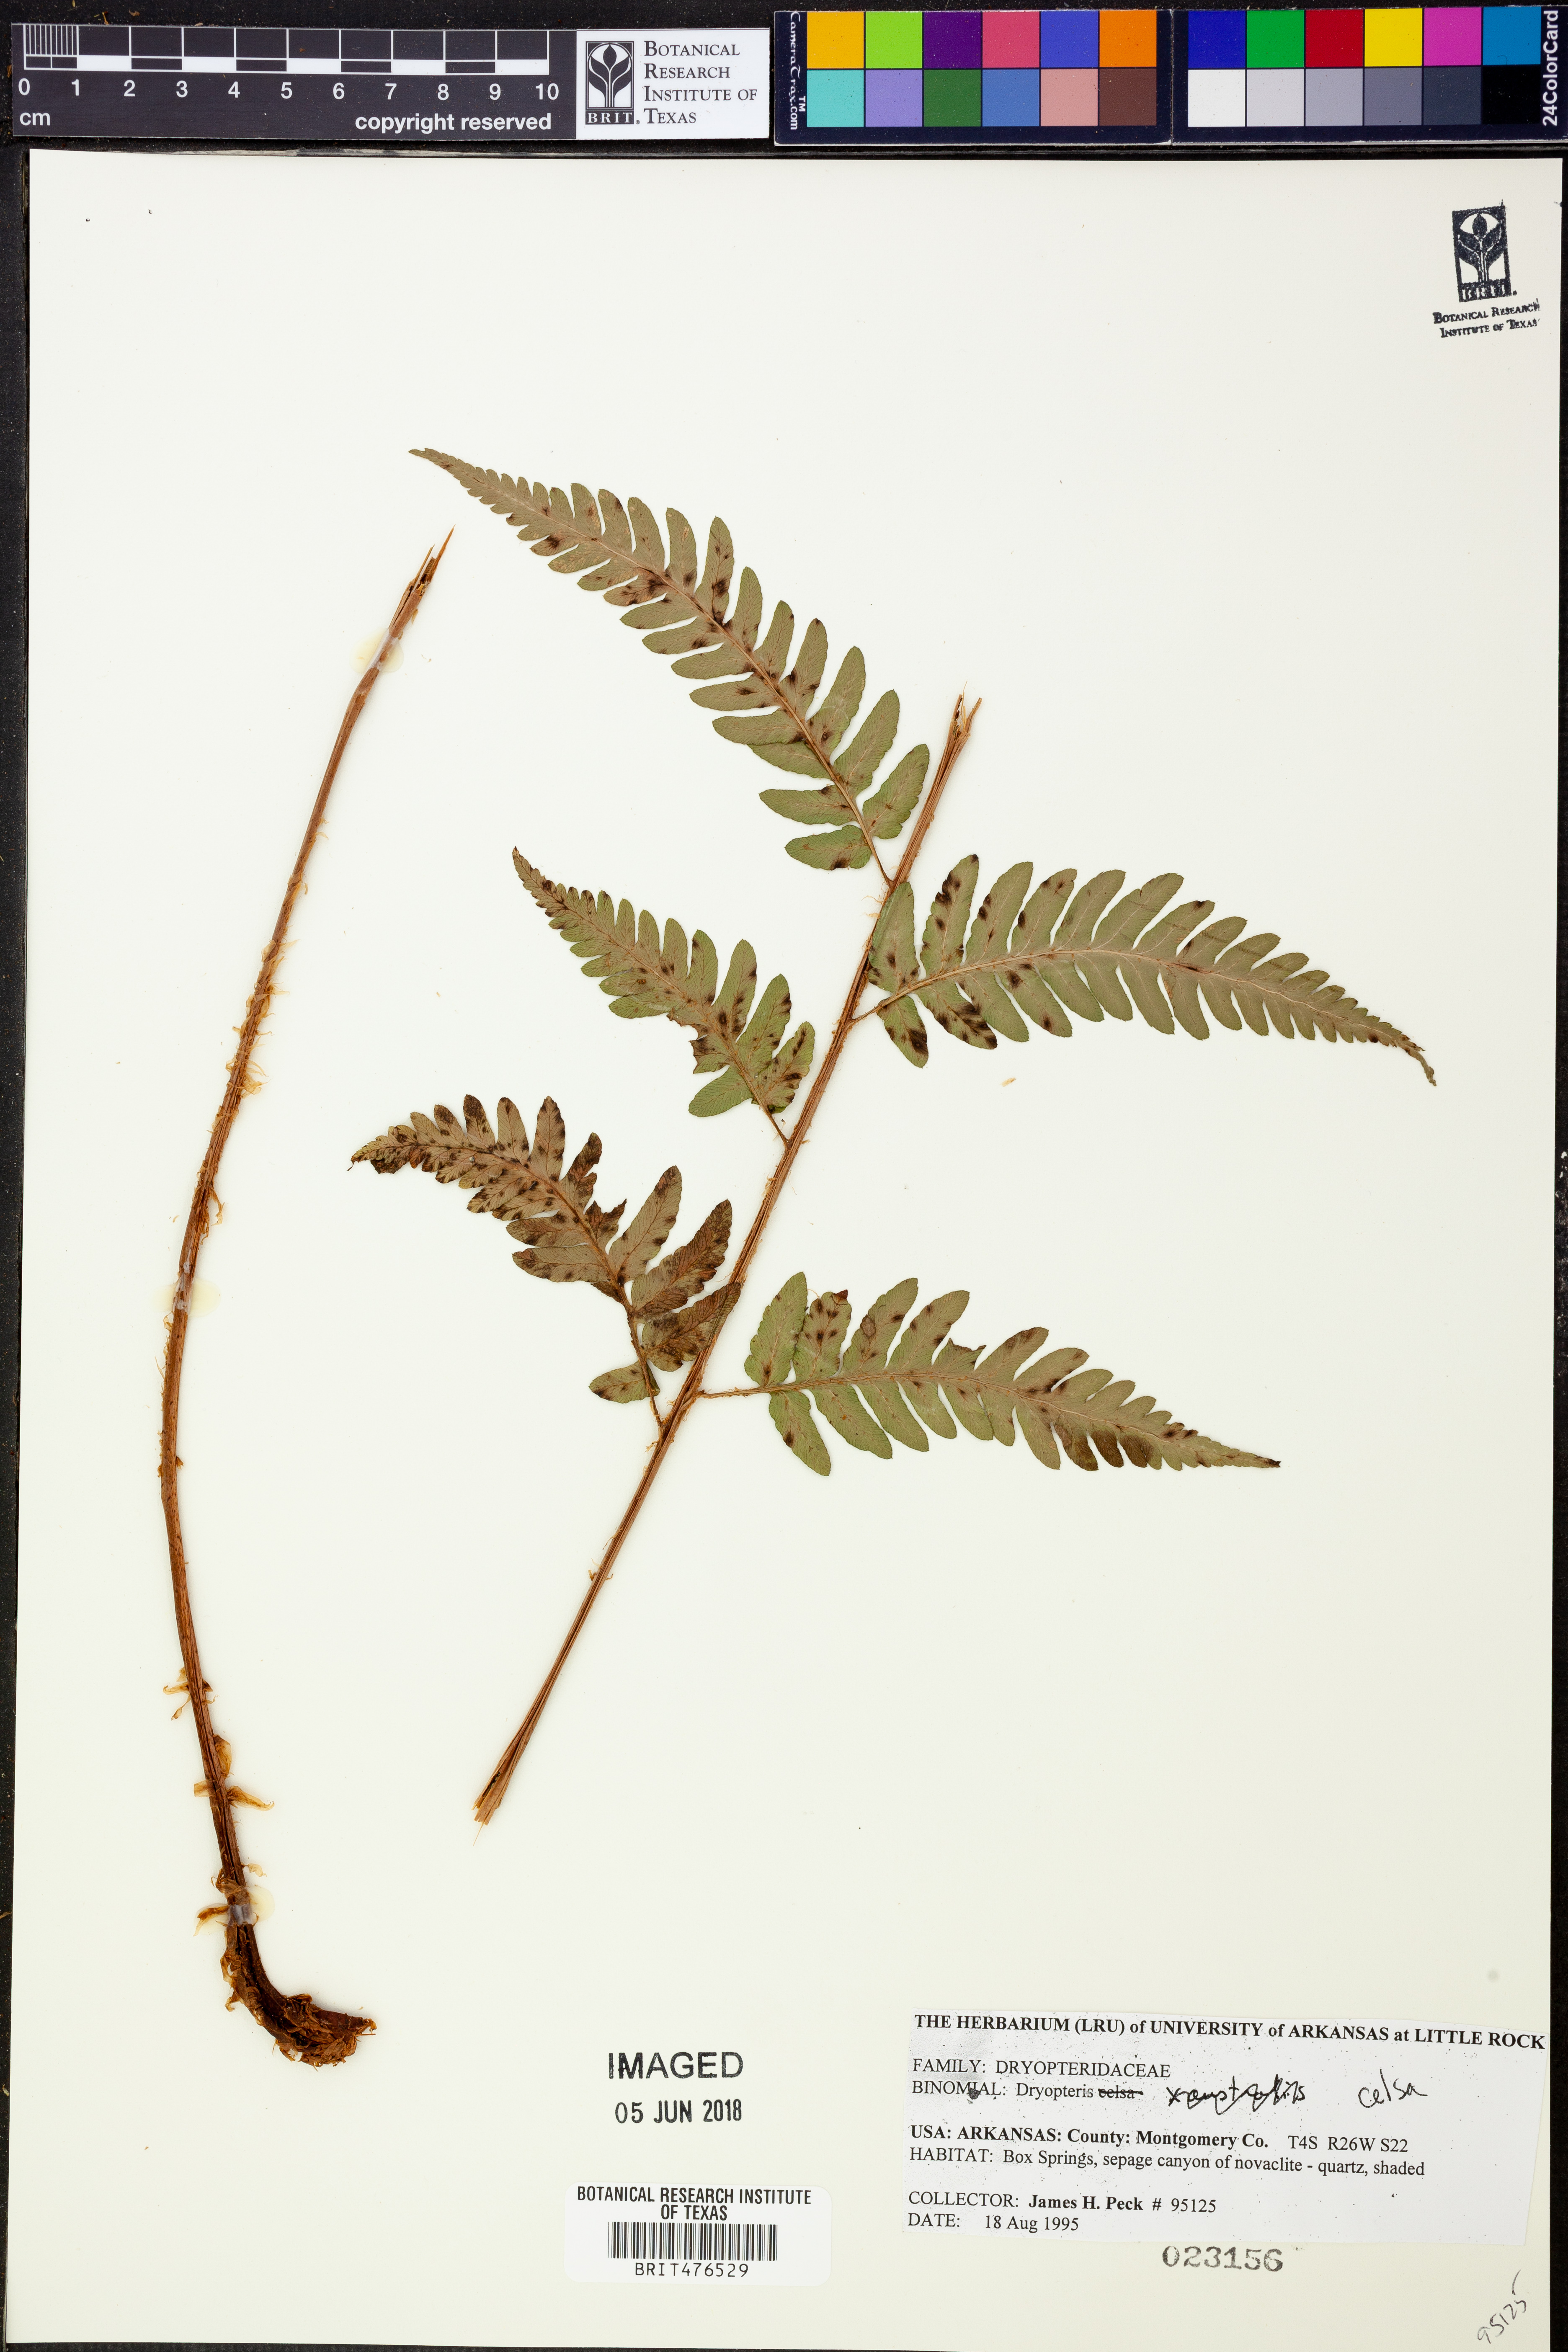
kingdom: Plantae
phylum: Tracheophyta
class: Polypodiopsida
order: Polypodiales
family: Dryopteridaceae
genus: Dryopteris
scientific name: Dryopteris celsa
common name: Log fern
